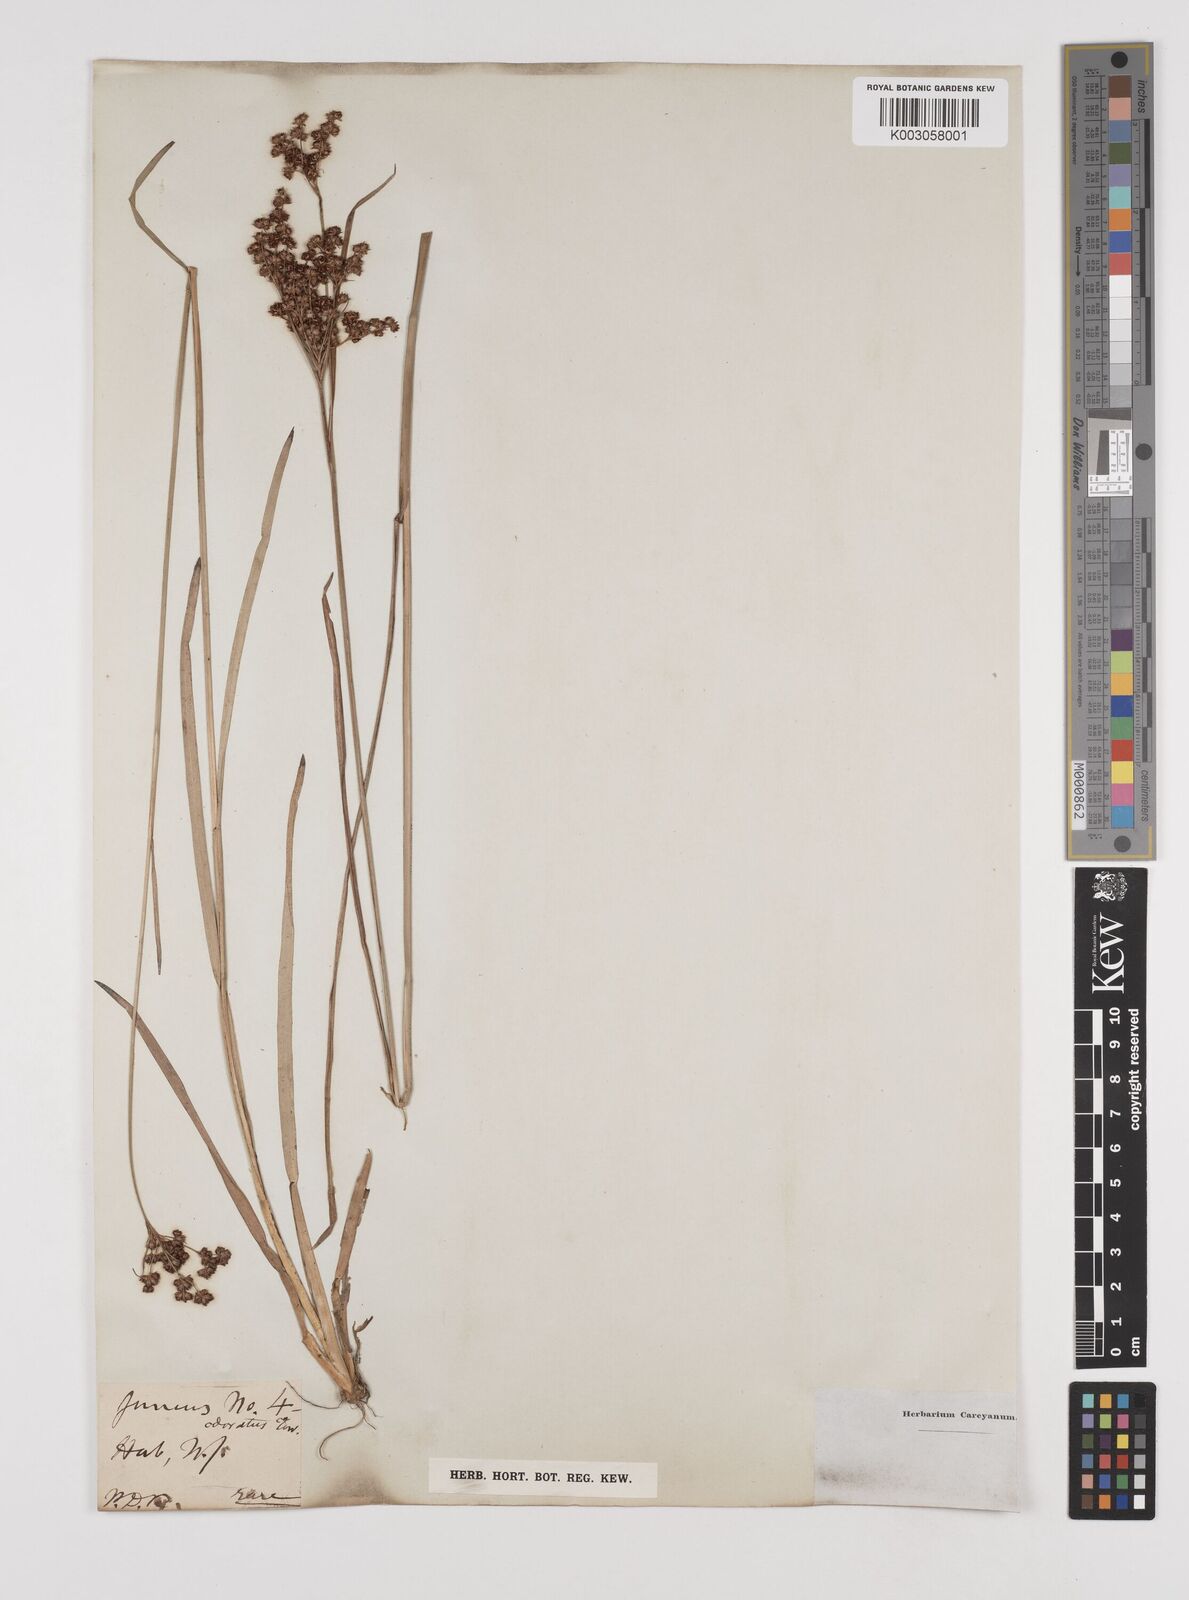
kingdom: Plantae
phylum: Tracheophyta
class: Liliopsida
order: Poales
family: Juncaceae
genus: Juncus
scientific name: Juncus biflorus
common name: Two-flowered rush
